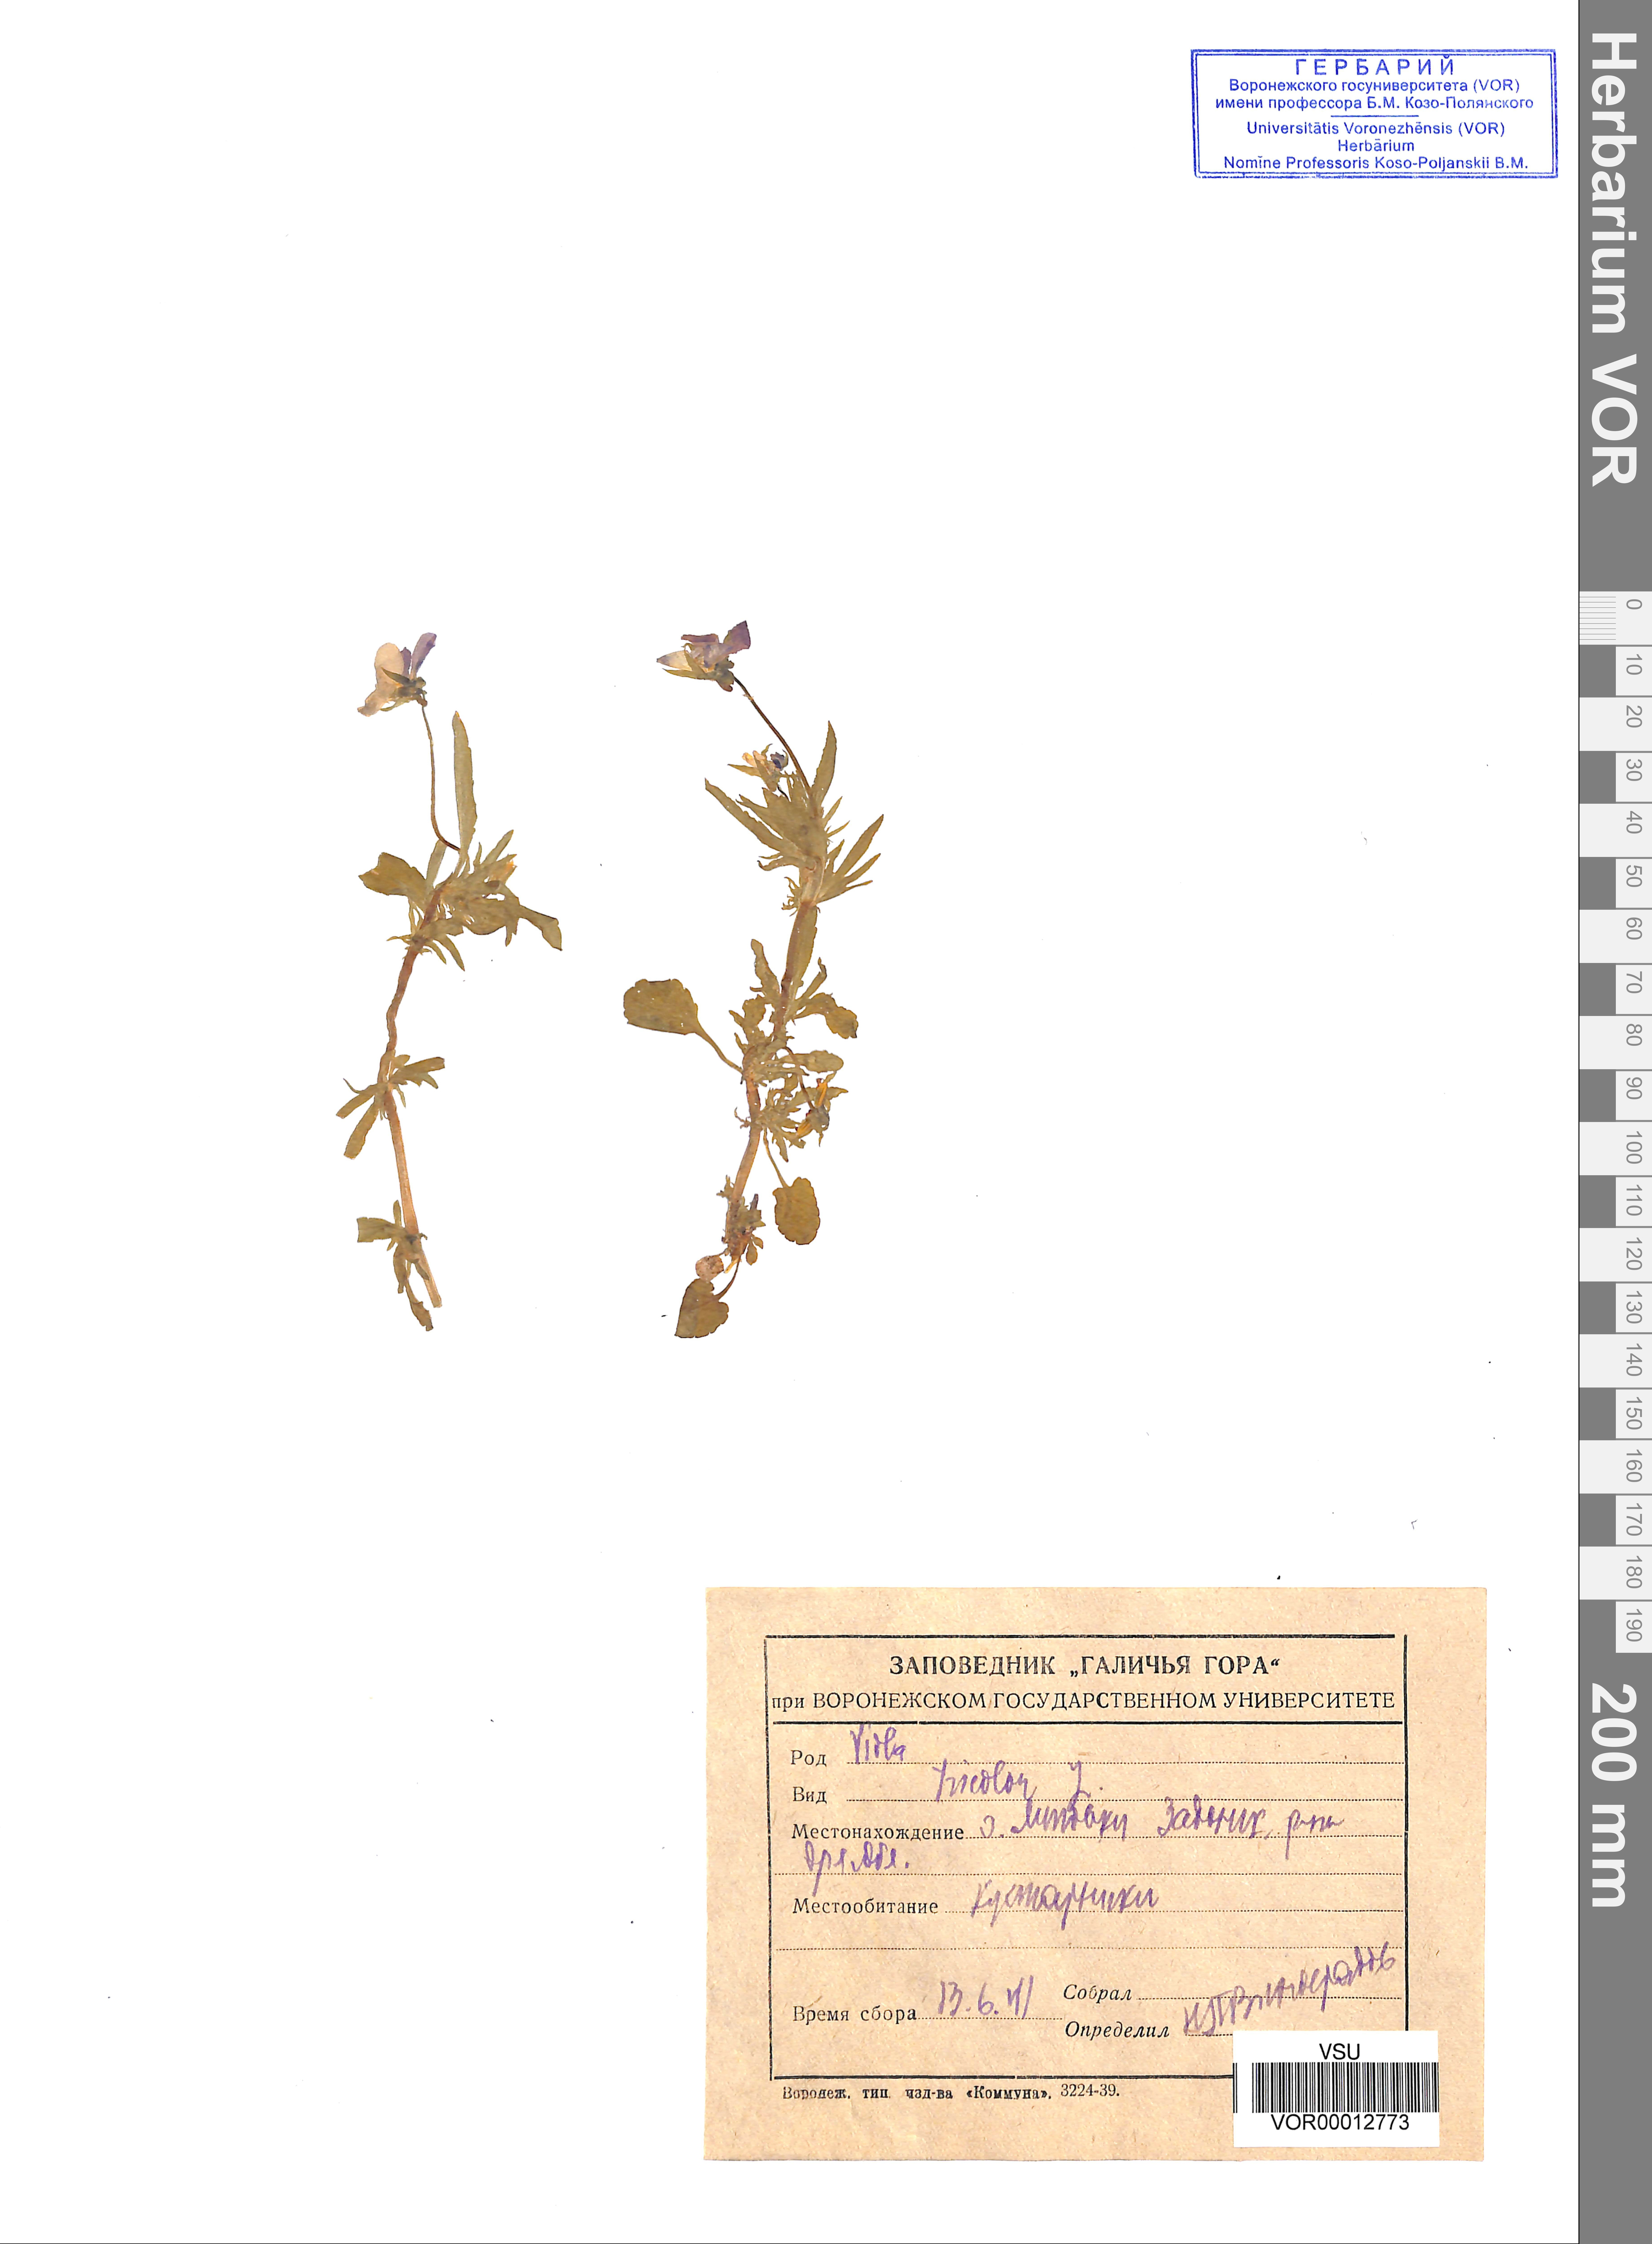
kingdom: Plantae
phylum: Tracheophyta
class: Magnoliopsida
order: Malpighiales
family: Violaceae
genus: Viola
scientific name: Viola tricolor
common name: Pansy
